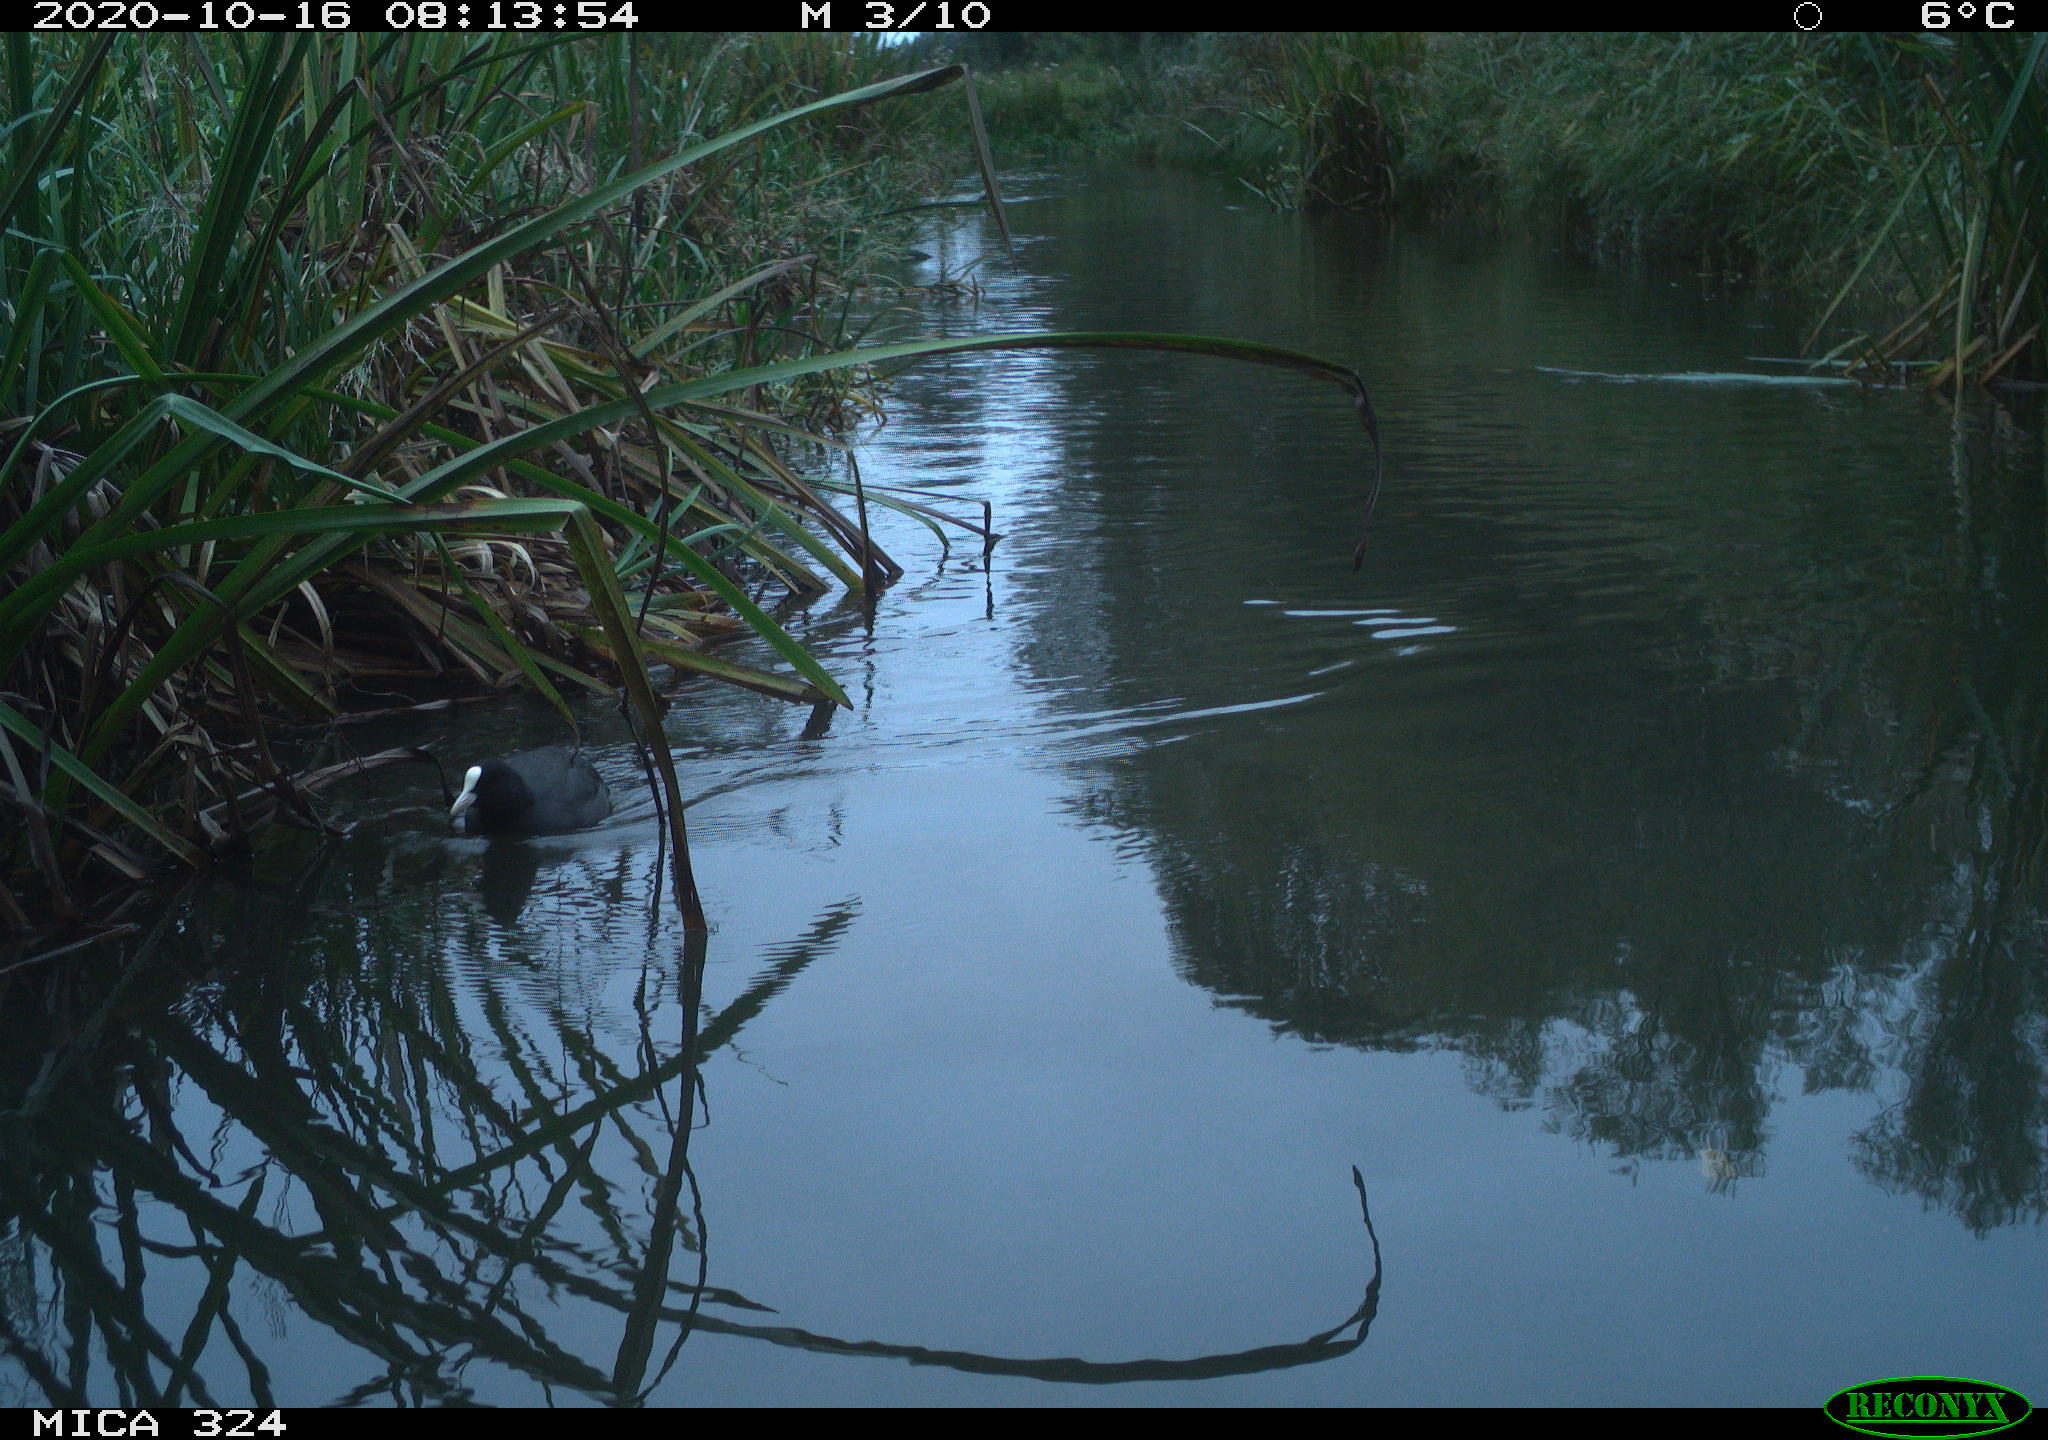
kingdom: Animalia
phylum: Chordata
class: Aves
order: Gruiformes
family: Rallidae
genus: Fulica
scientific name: Fulica atra
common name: Eurasian coot
